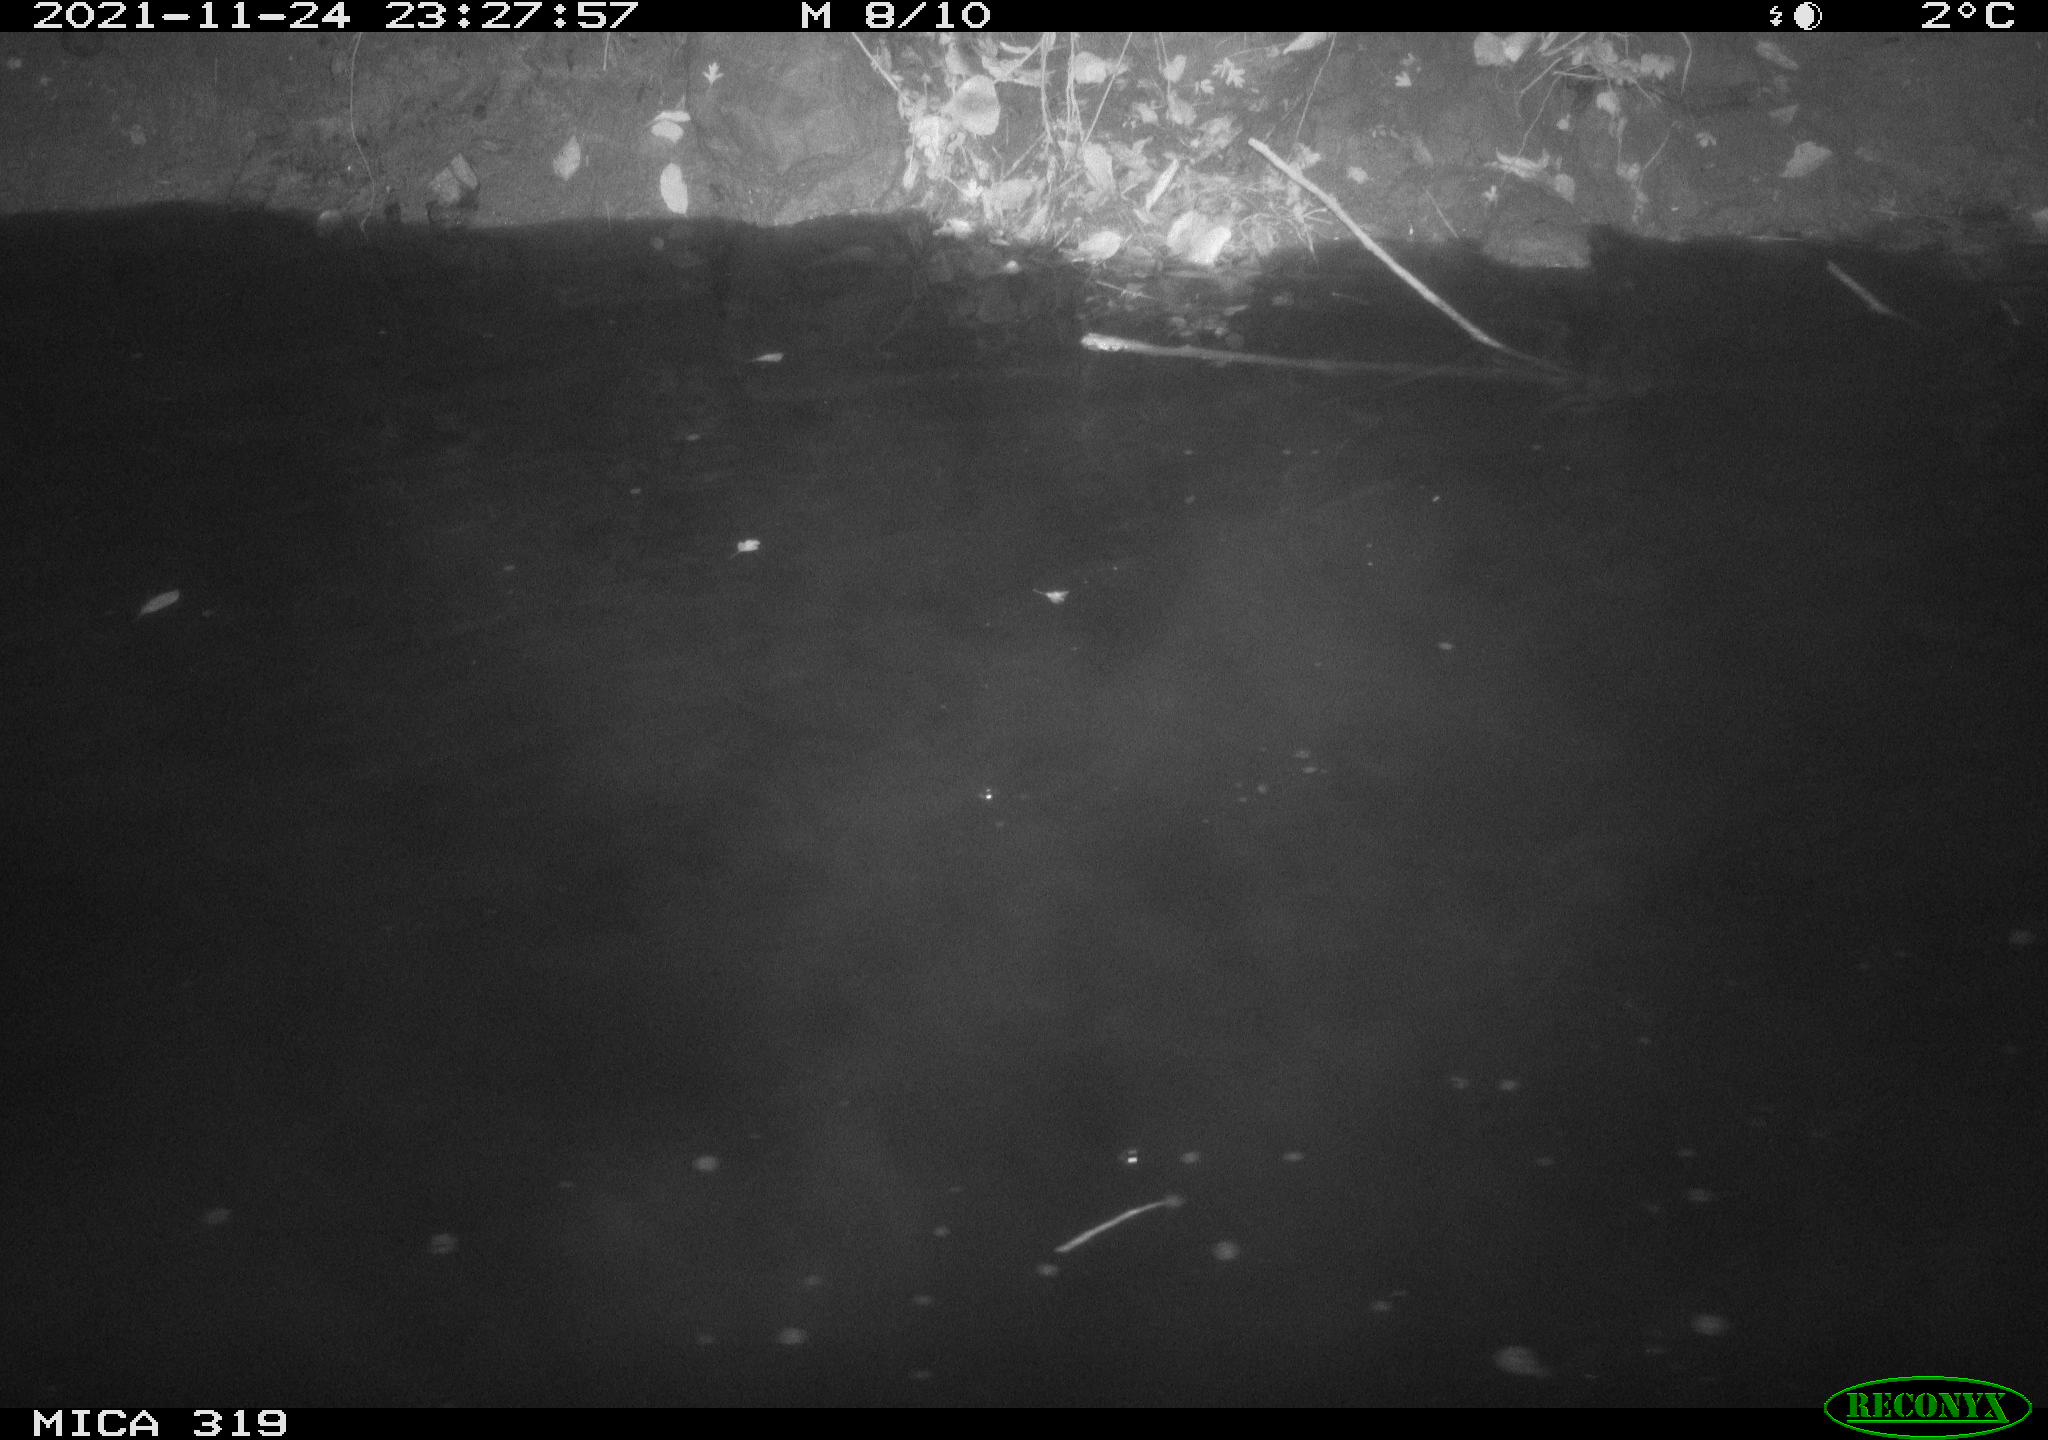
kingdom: Animalia
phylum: Chordata
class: Aves
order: Anseriformes
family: Anatidae
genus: Anas
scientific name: Anas platyrhynchos
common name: Mallard
